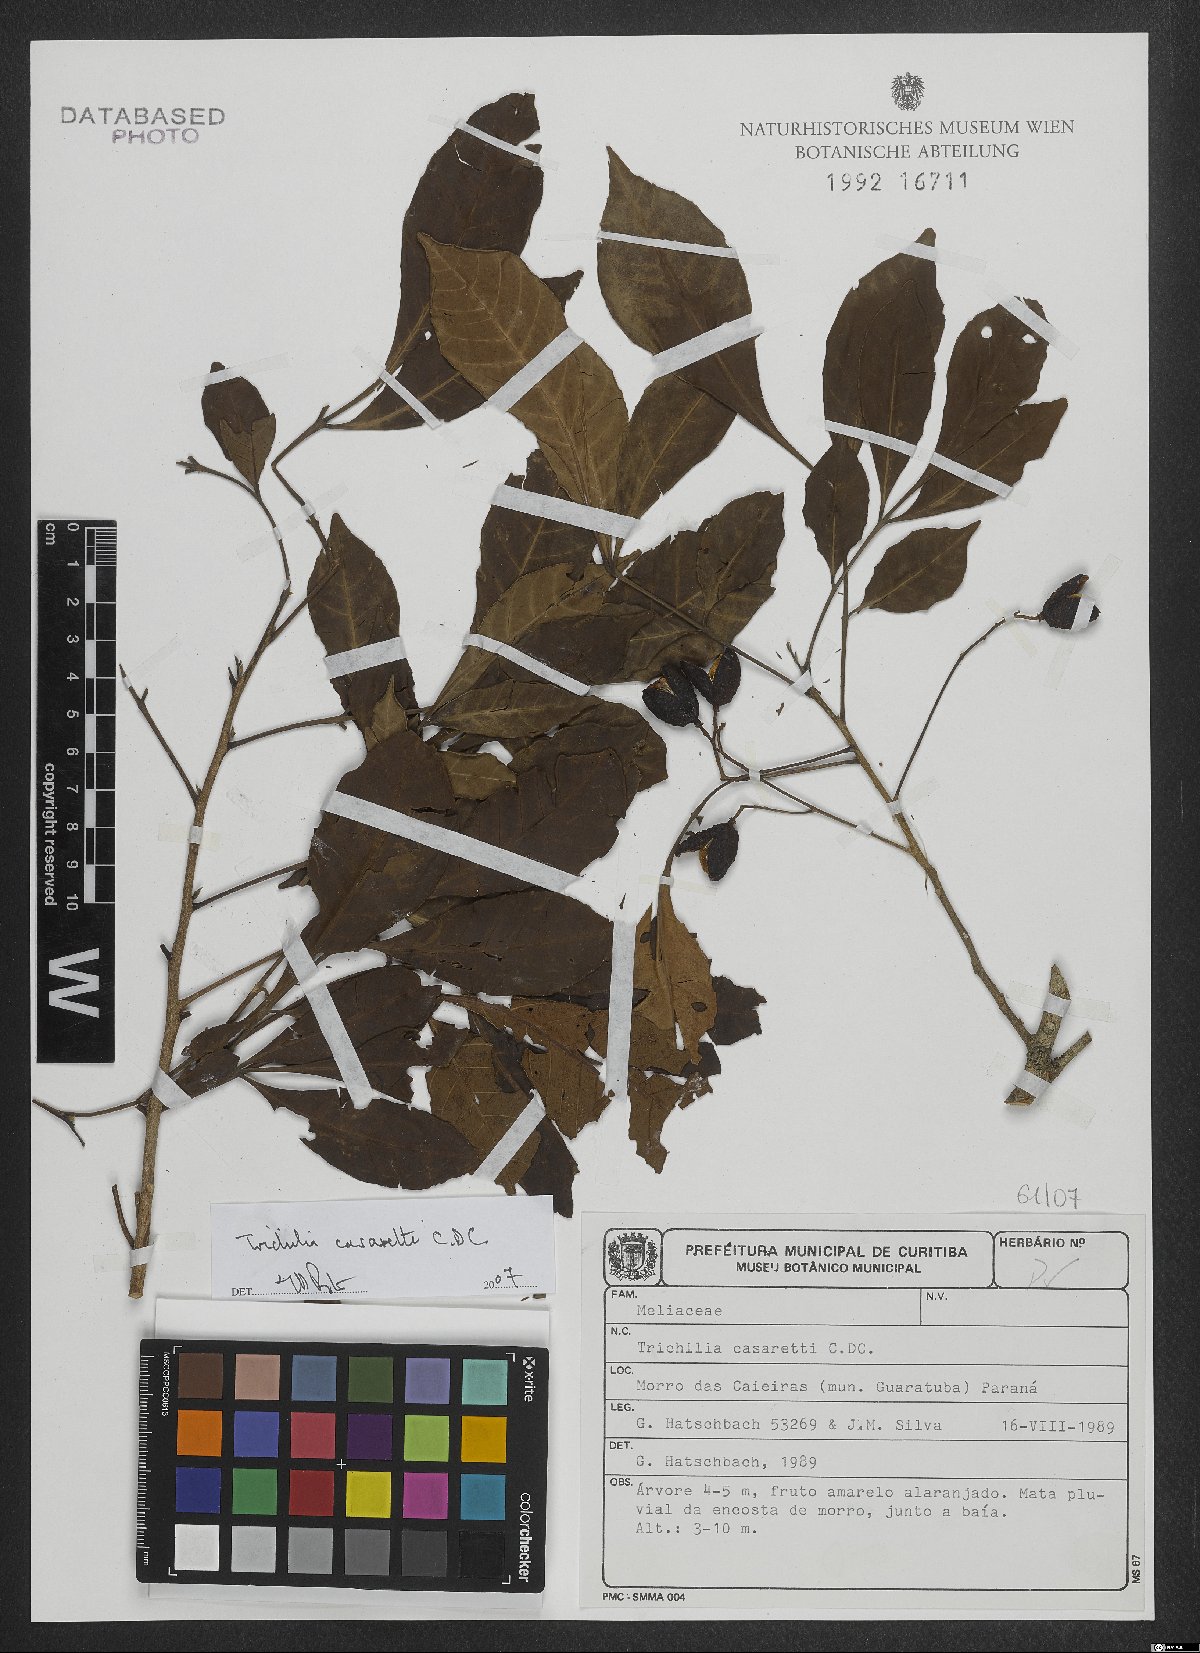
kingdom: Plantae
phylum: Tracheophyta
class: Magnoliopsida
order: Sapindales
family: Meliaceae
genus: Trichilia
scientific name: Trichilia casarettoi
